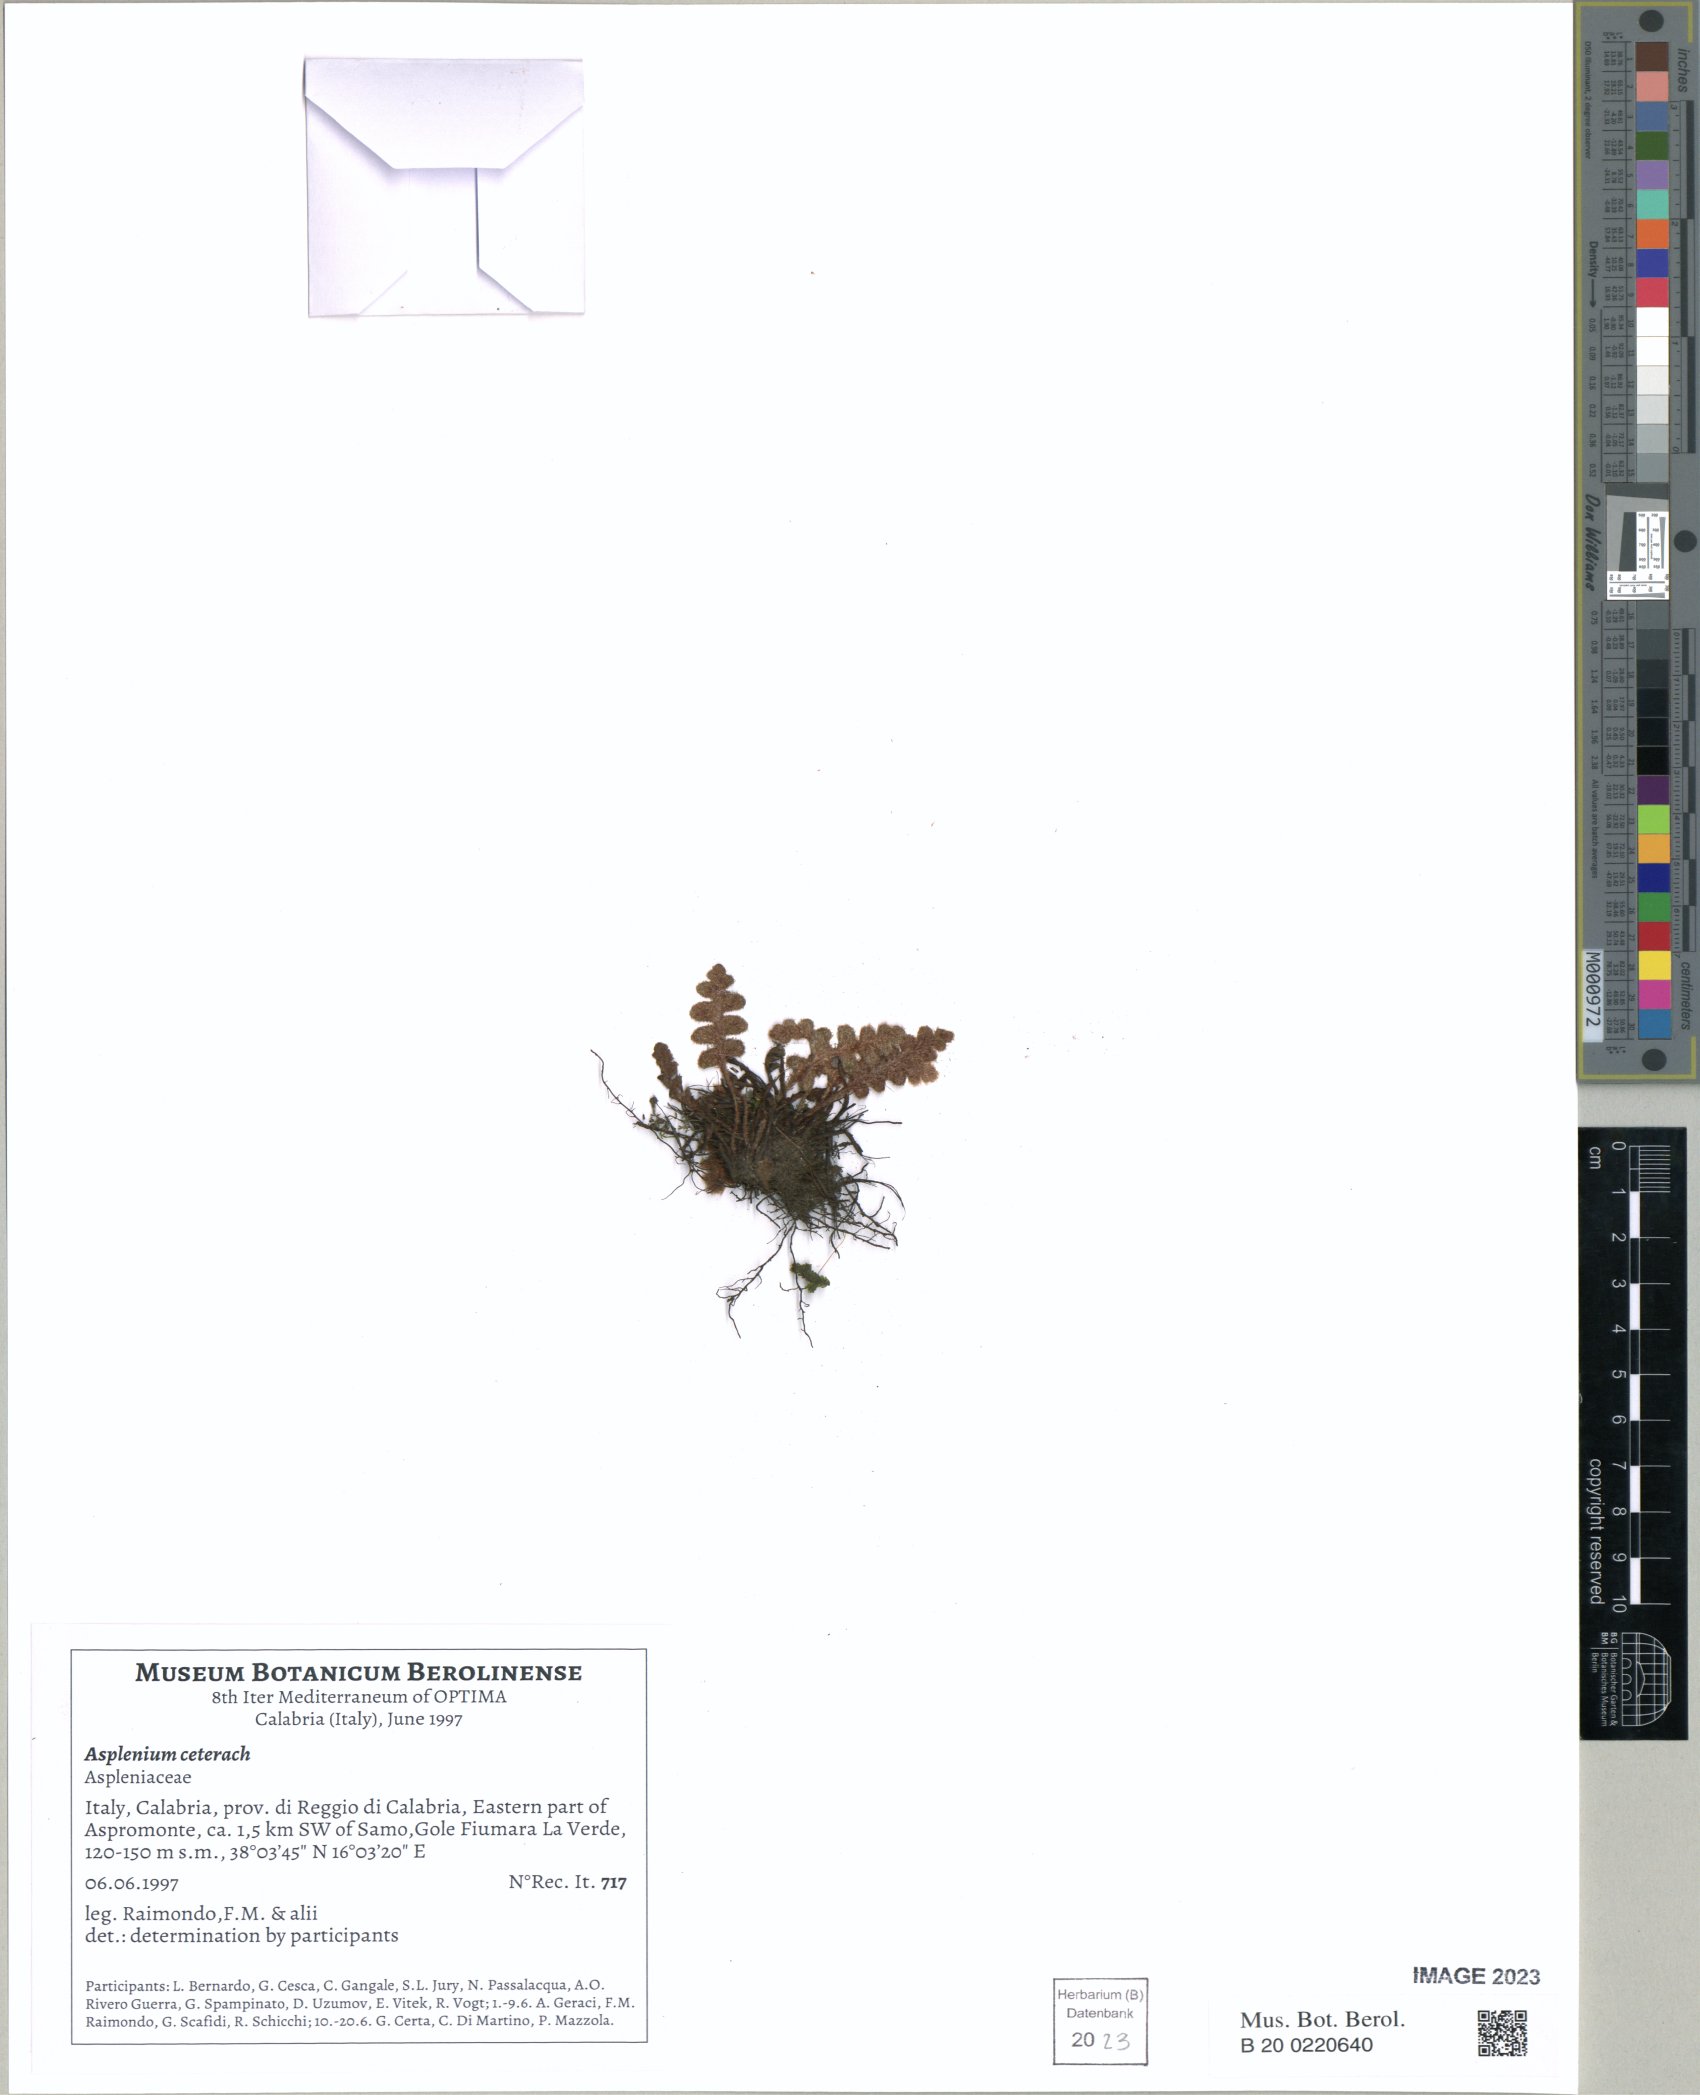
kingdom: Plantae
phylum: Tracheophyta
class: Polypodiopsida
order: Polypodiales
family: Aspleniaceae
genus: Asplenium
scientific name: Asplenium ceterach
